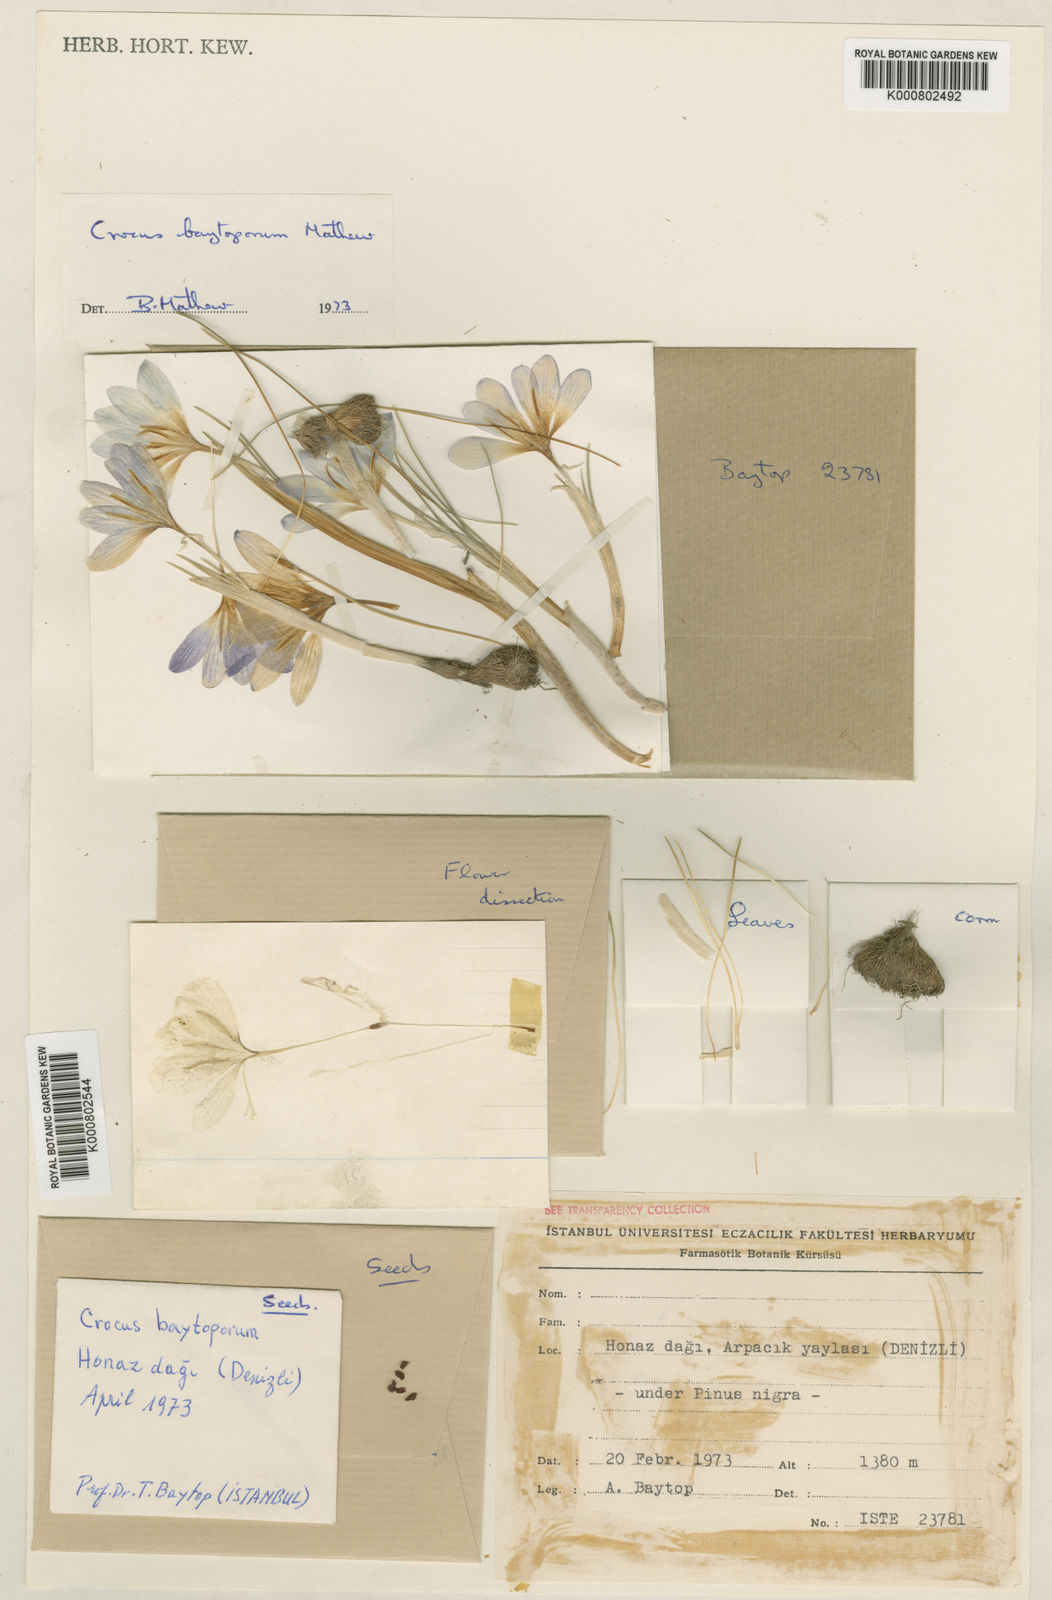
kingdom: Plantae
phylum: Tracheophyta
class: Liliopsida
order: Asparagales
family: Iridaceae
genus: Crocus
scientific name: Crocus baytopiorum
